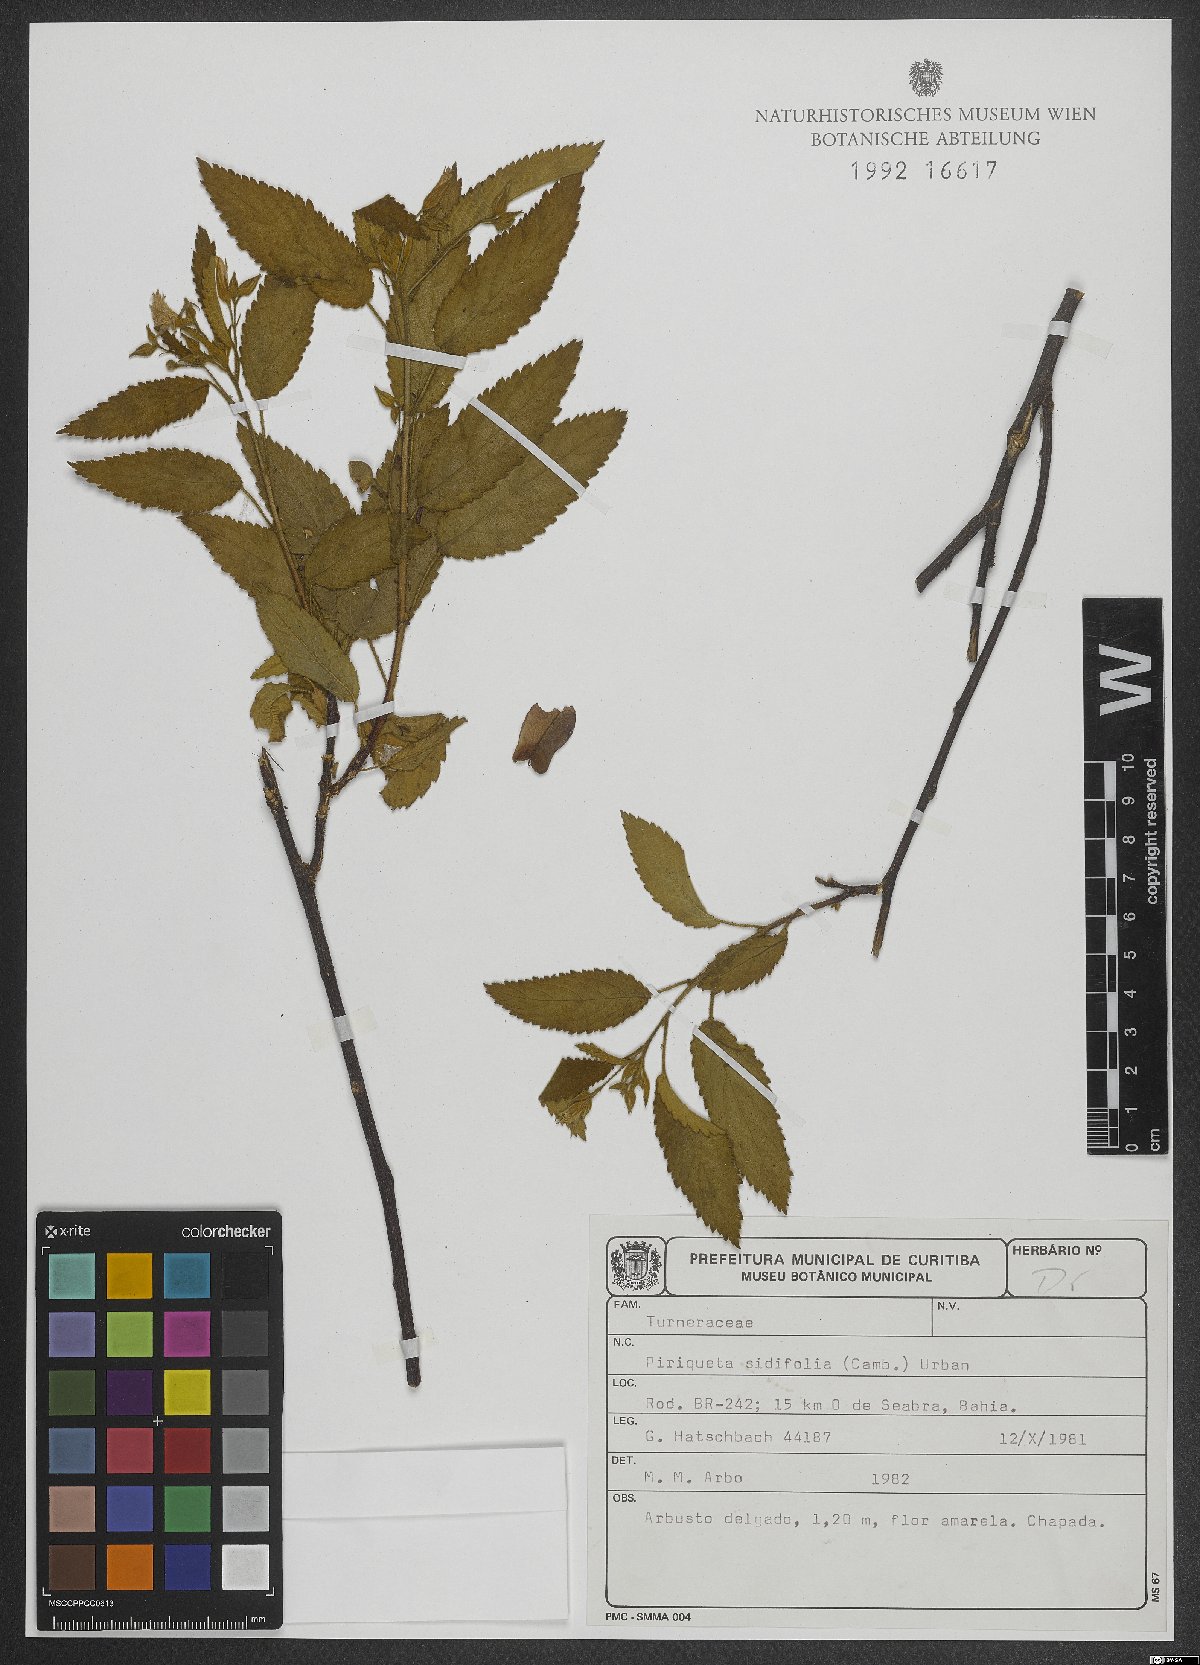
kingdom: Plantae
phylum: Tracheophyta
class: Magnoliopsida
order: Malpighiales
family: Turneraceae
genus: Piriqueta
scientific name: Piriqueta sidifolia
